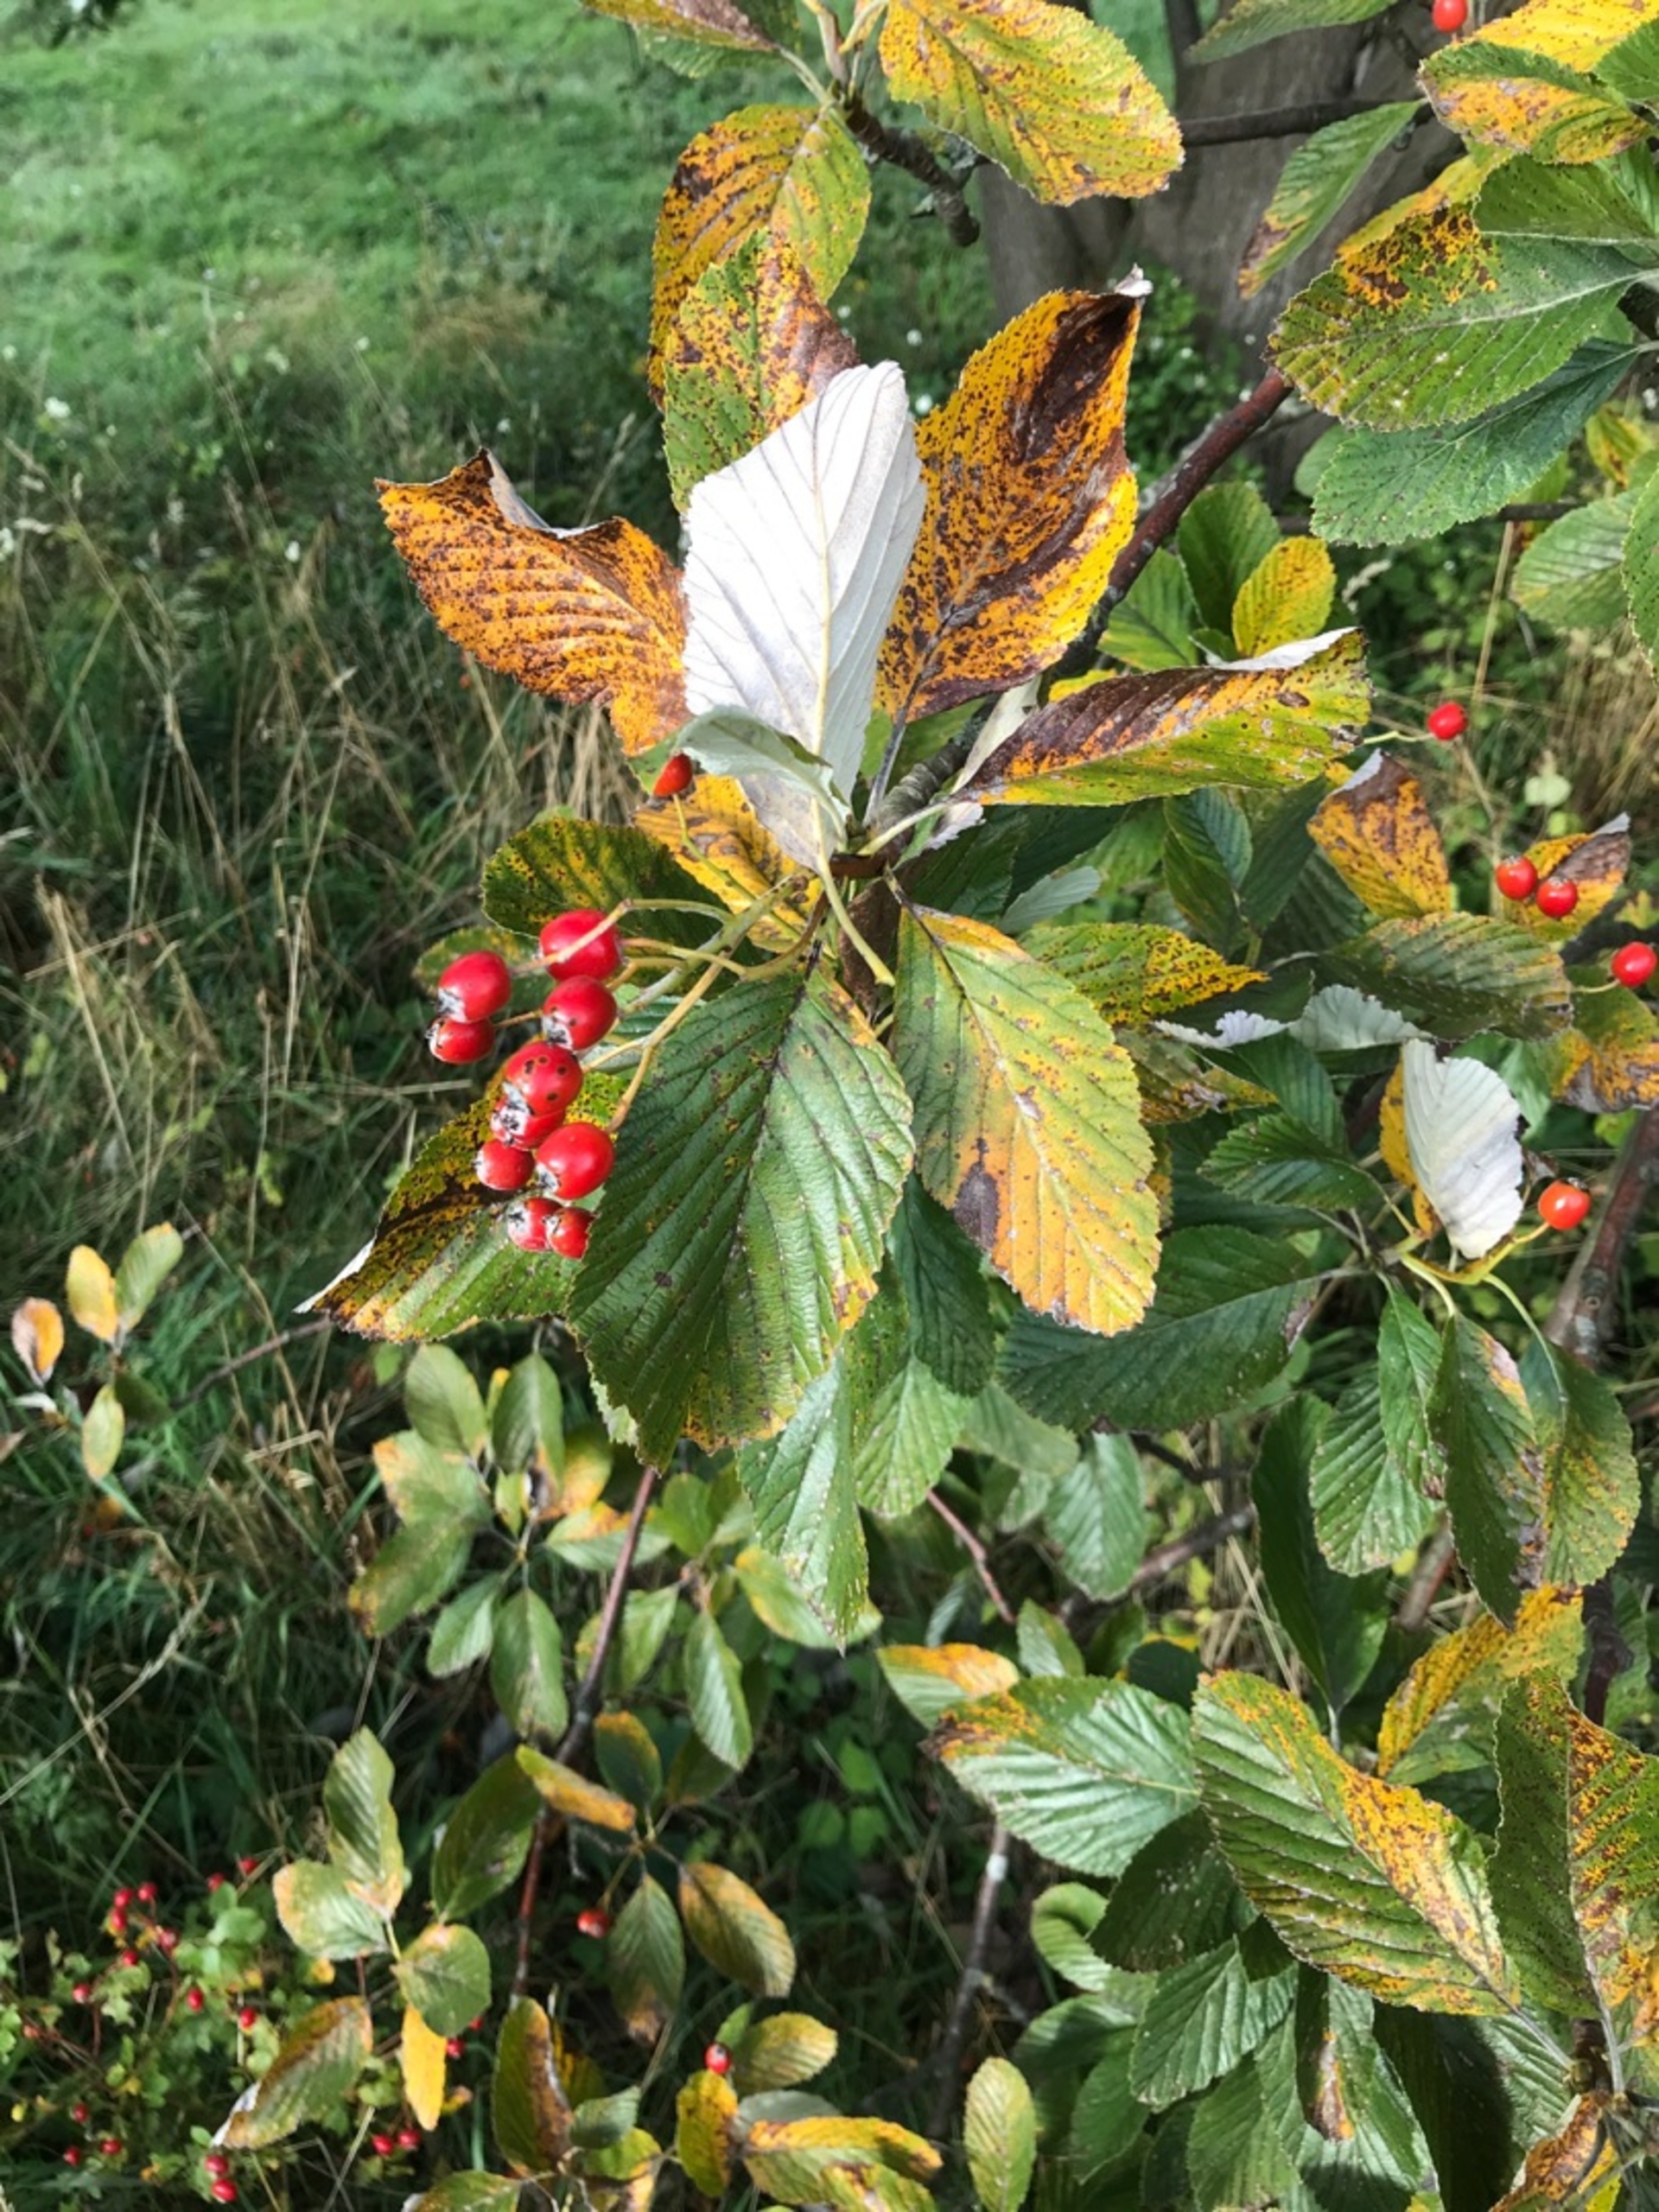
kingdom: Plantae
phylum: Tracheophyta
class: Magnoliopsida
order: Rosales
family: Rosaceae
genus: Aria
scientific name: Aria edulis
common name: Aksel-røn
